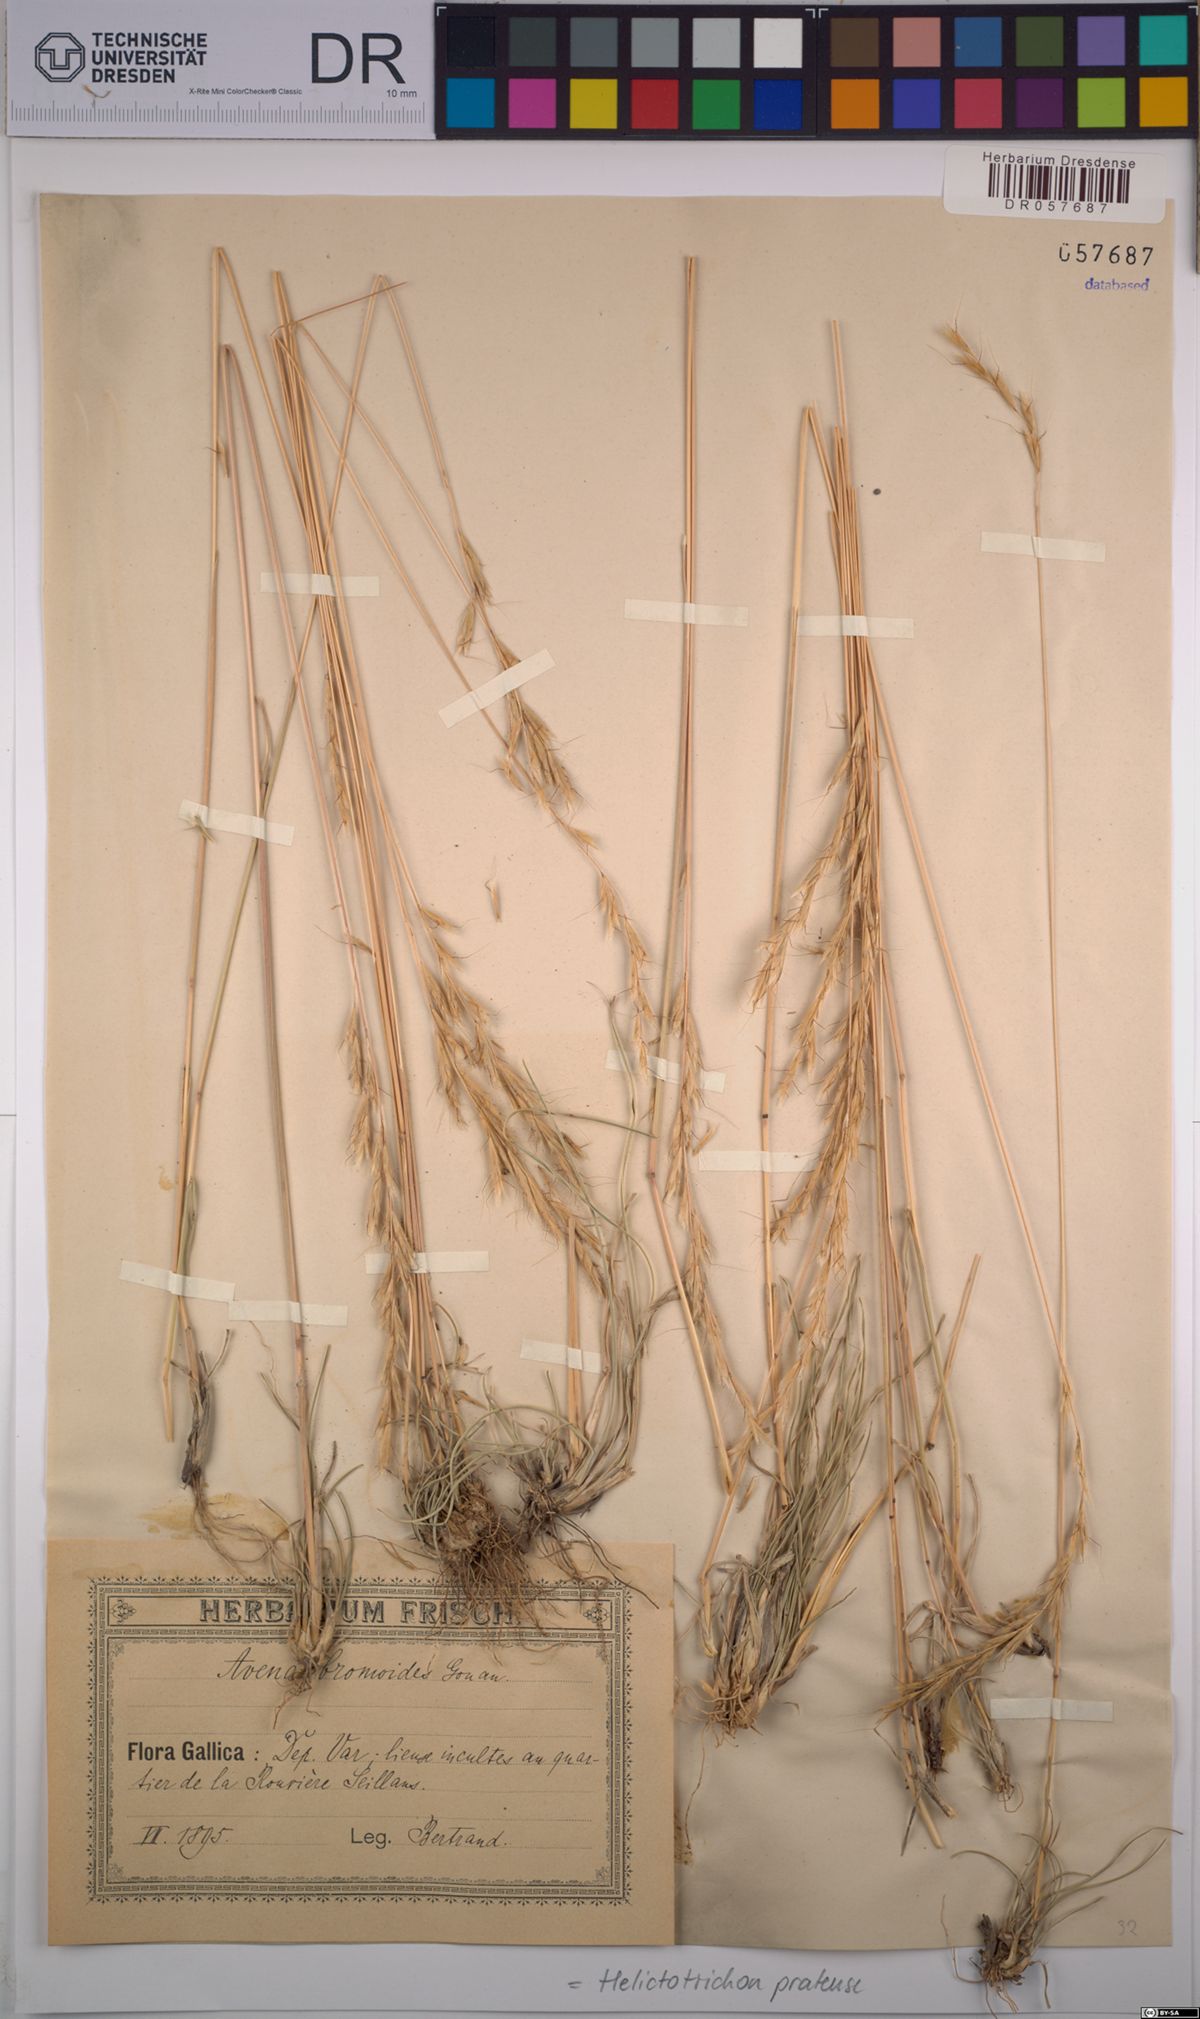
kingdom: Plantae
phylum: Tracheophyta
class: Liliopsida
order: Poales
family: Poaceae
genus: Helictochloa
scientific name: Helictochloa pratensis
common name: Meadow oat grass
